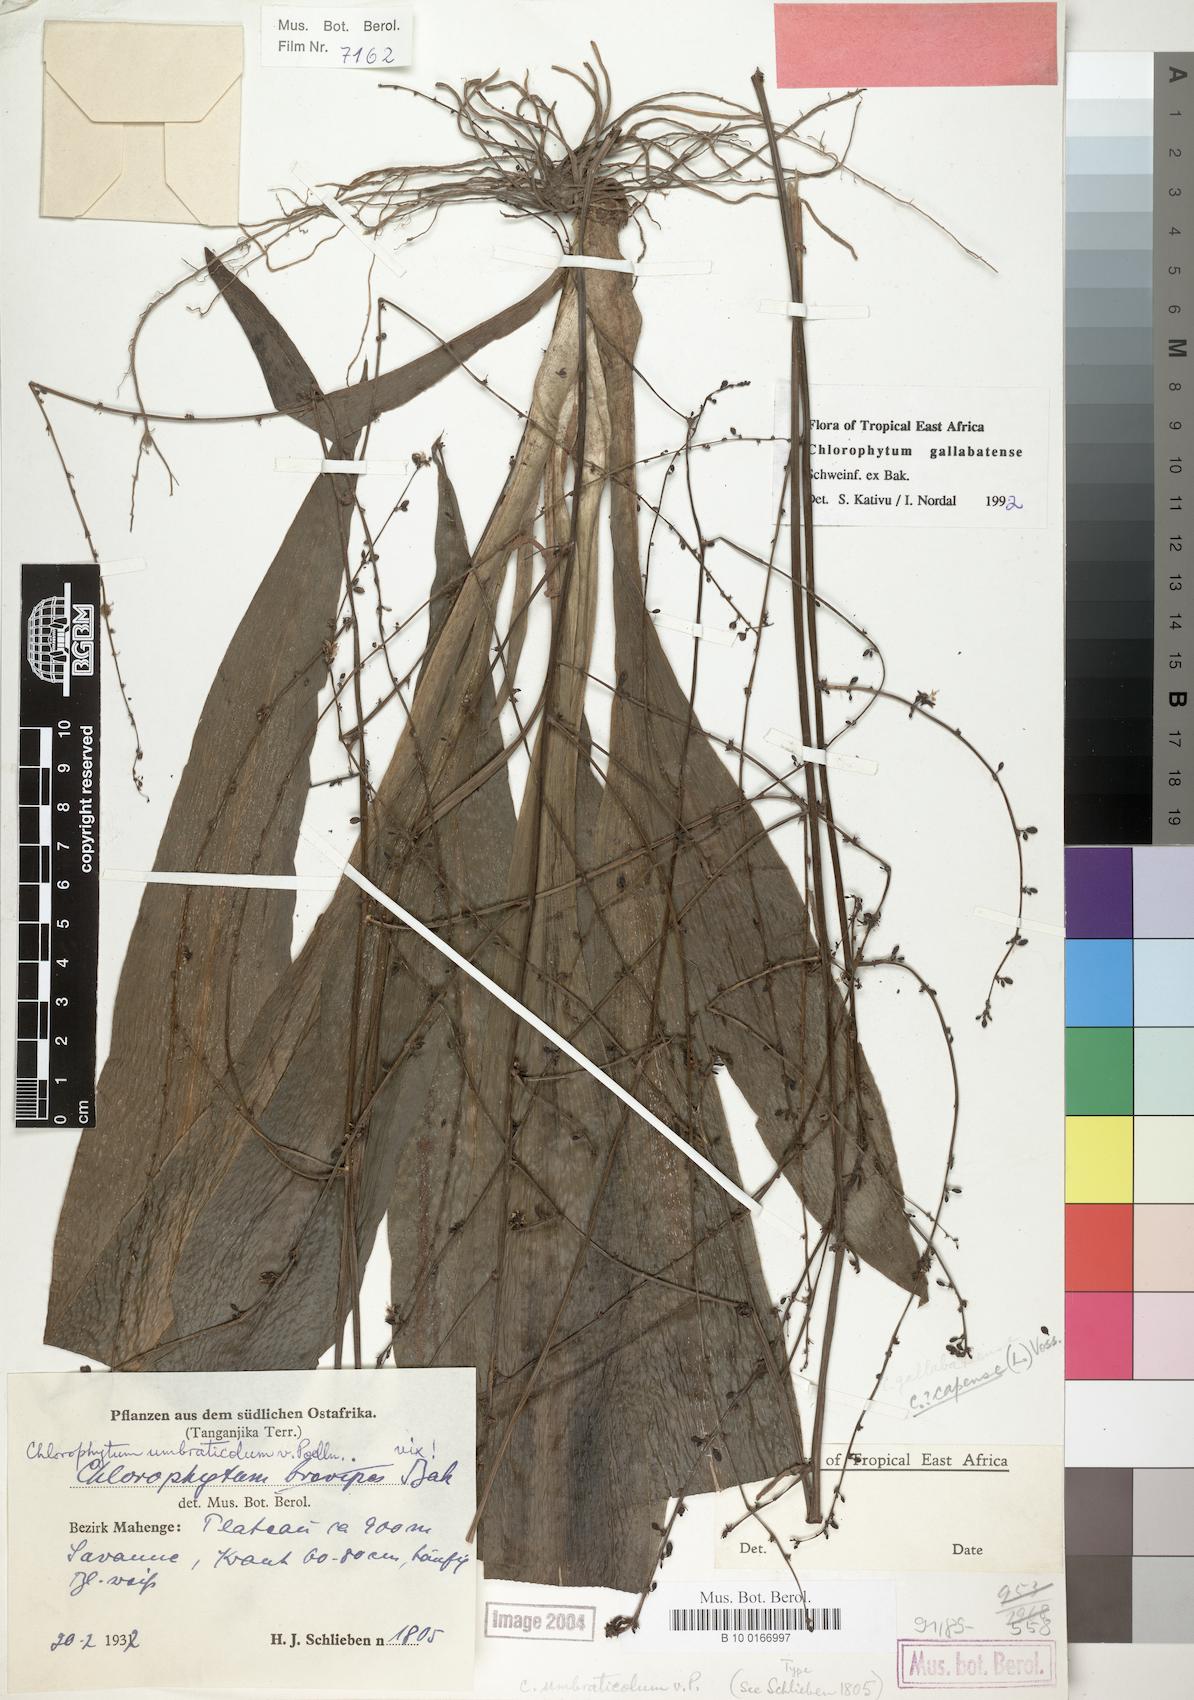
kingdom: Plantae
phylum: Tracheophyta
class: Liliopsida
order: Asparagales
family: Asparagaceae
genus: Chlorophytum
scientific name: Chlorophytum gallabatense
